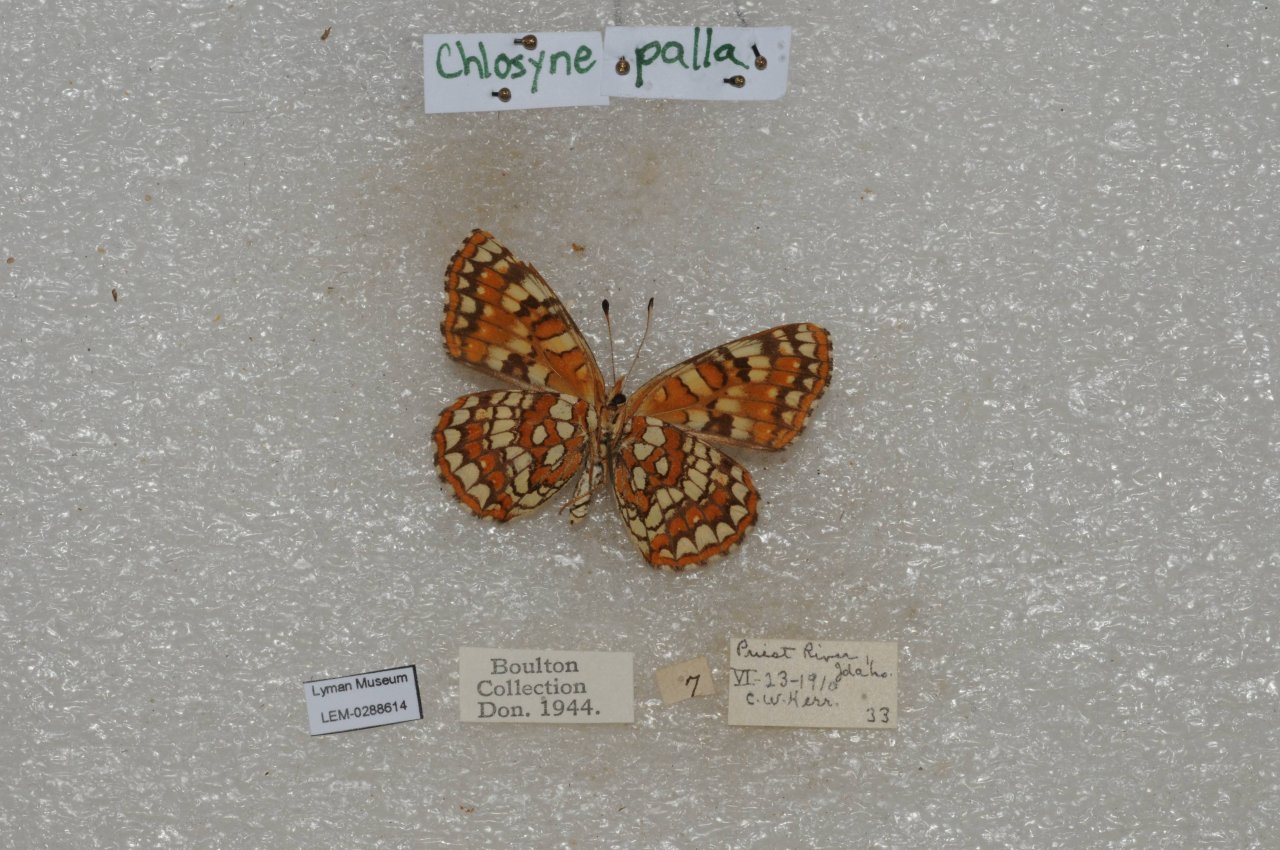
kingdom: Animalia
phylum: Arthropoda
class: Insecta
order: Lepidoptera
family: Nymphalidae
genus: Chlosyne
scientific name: Chlosyne palla
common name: Northern Checkerspot
